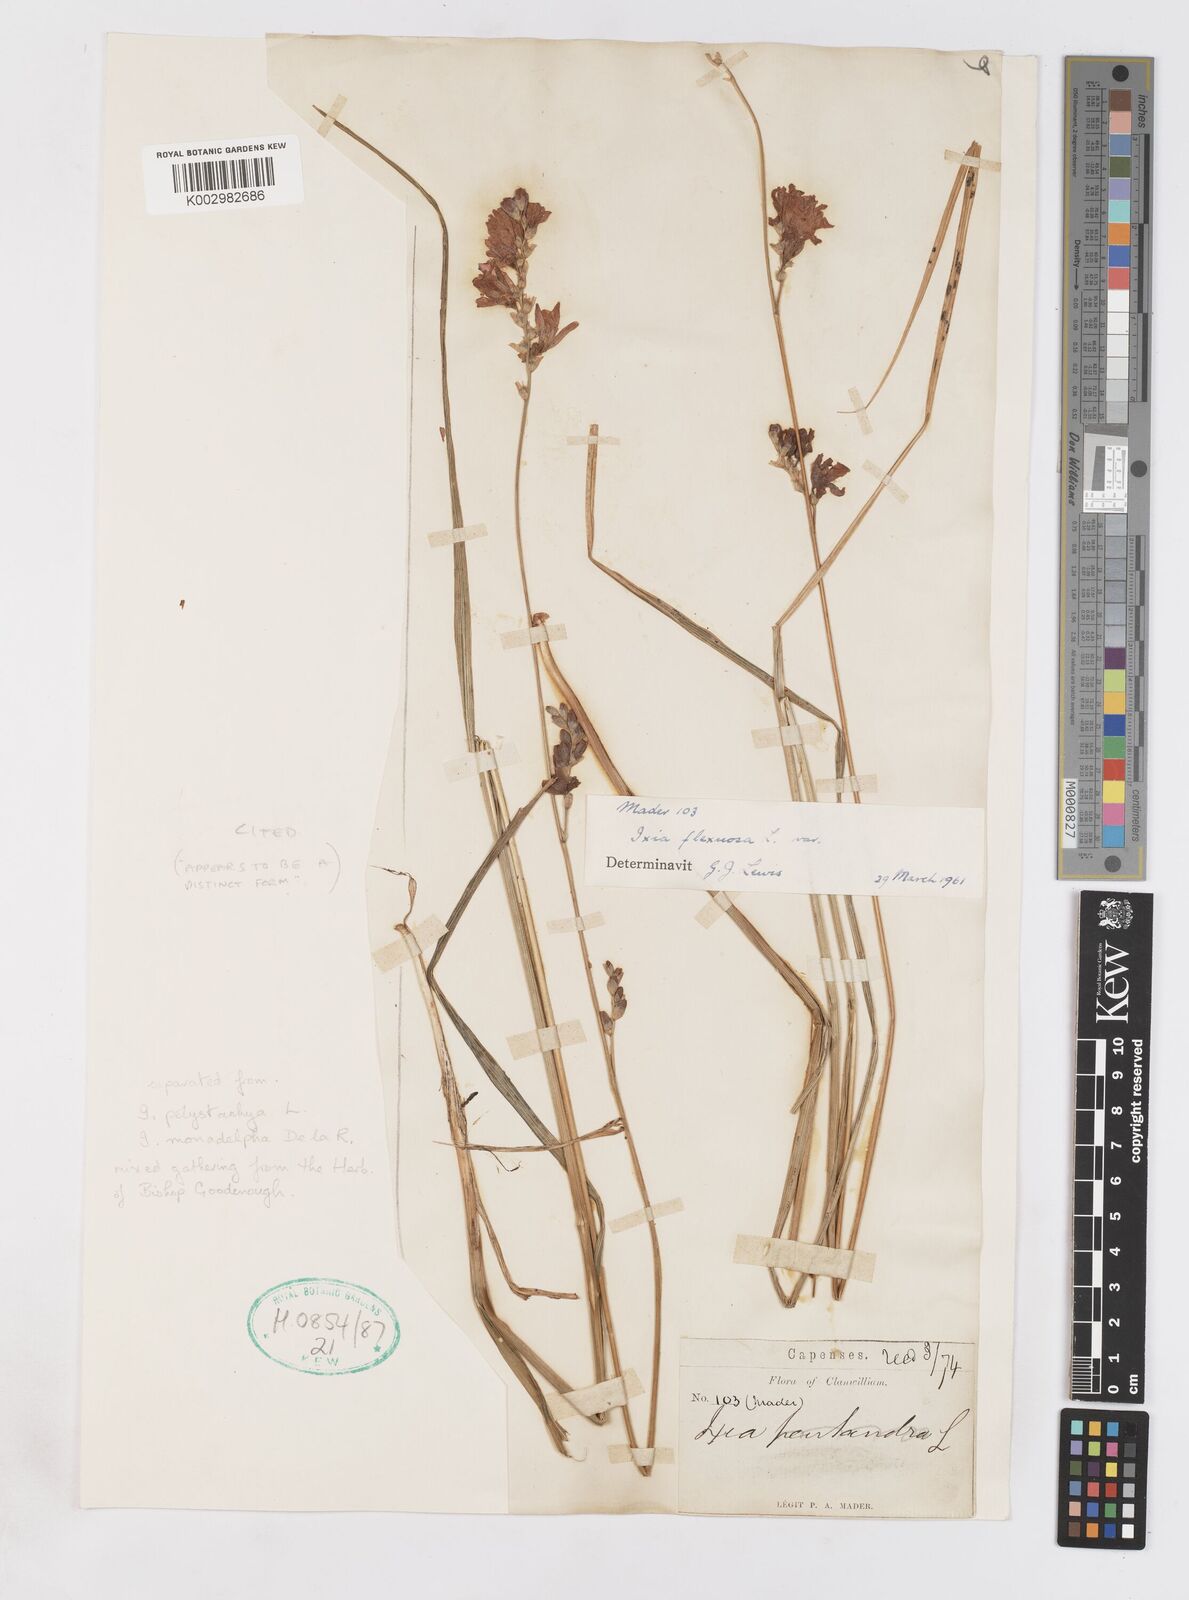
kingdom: Plantae
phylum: Tracheophyta
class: Liliopsida
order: Asparagales
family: Iridaceae
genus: Ixia
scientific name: Ixia flexuosa
